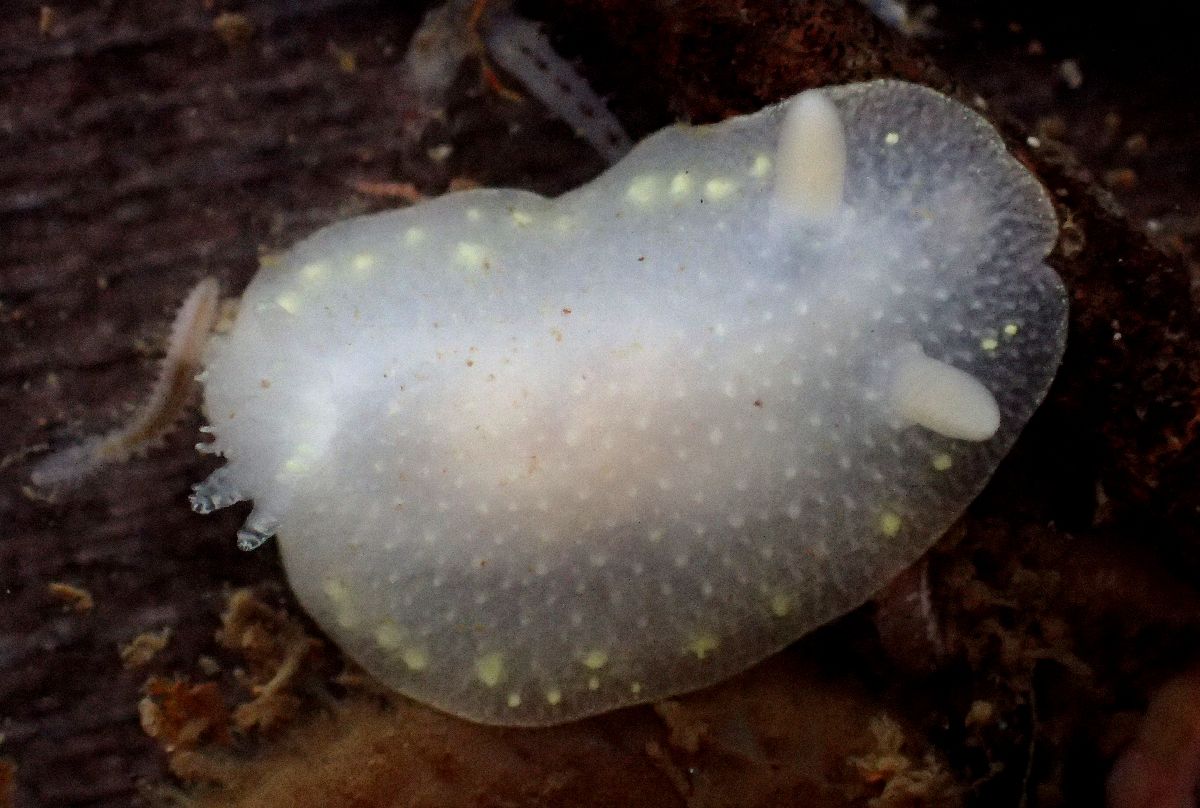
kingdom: Animalia
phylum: Mollusca
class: Gastropoda
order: Nudibranchia
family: Cadlinidae
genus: Cadlina
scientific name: Cadlina laevis
